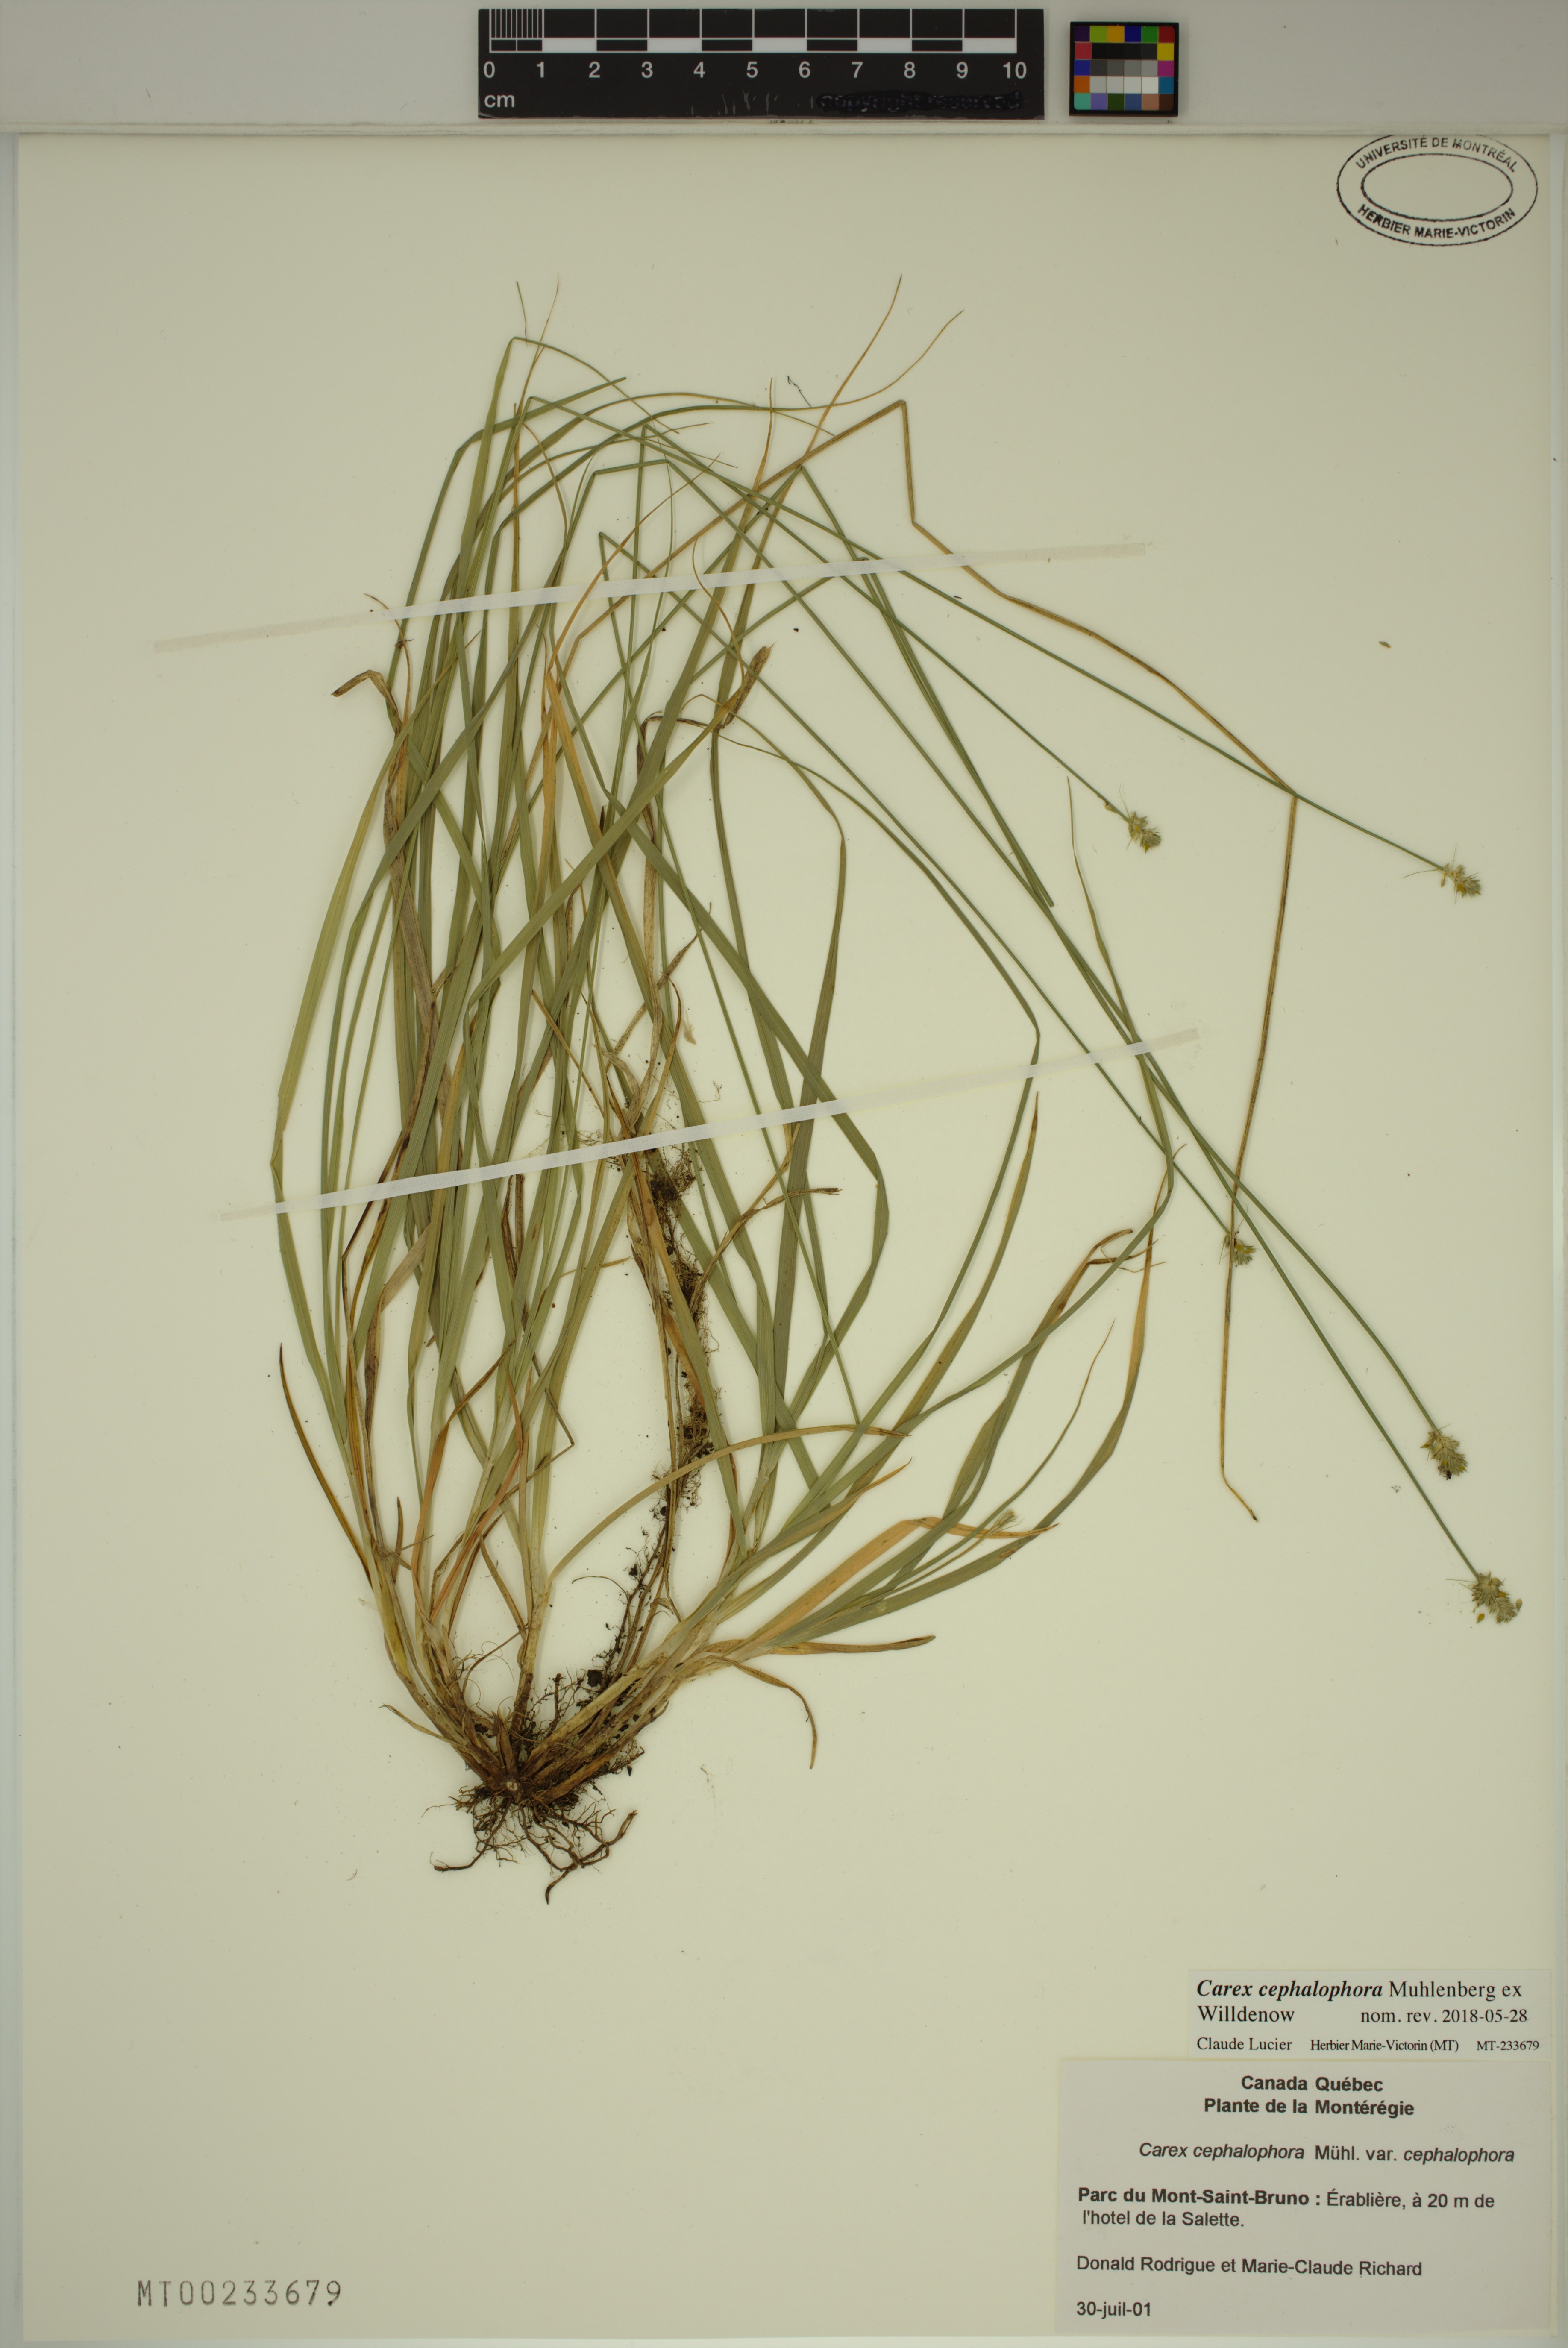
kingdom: Plantae
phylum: Tracheophyta
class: Liliopsida
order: Poales
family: Cyperaceae
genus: Carex
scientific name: Carex cephalophora
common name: Oval-headed sedge
